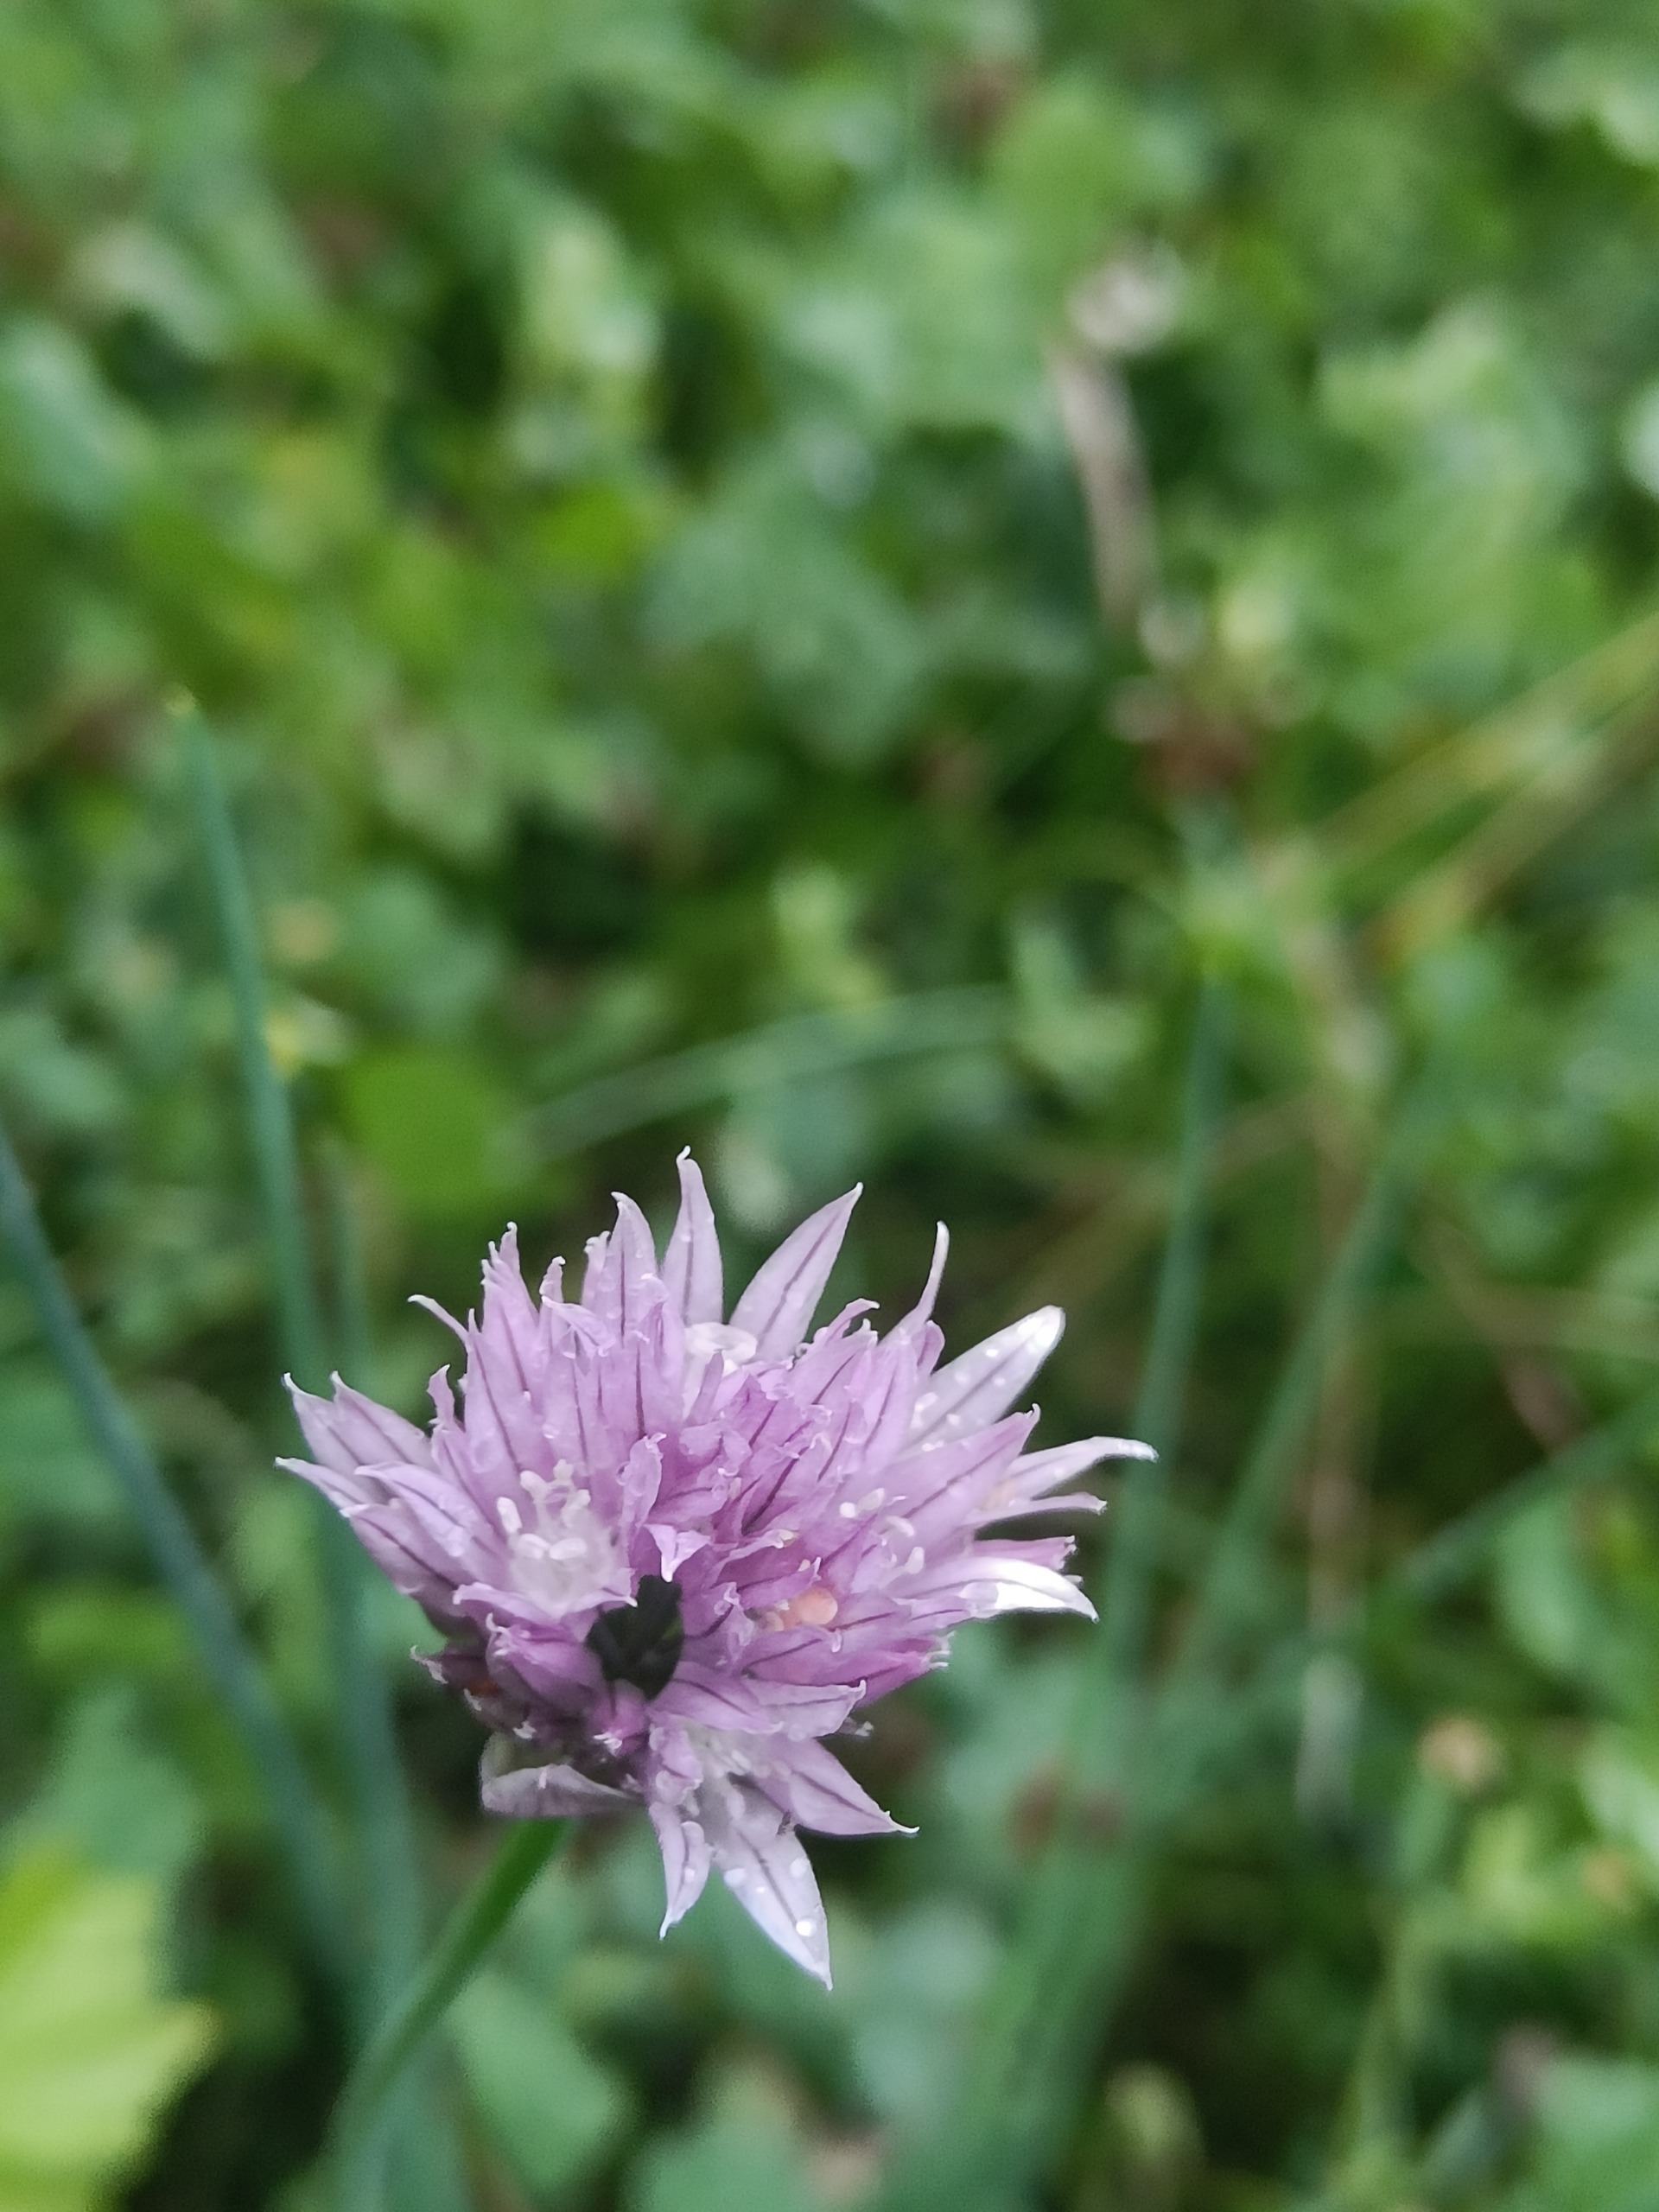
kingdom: Plantae
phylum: Tracheophyta
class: Liliopsida
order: Asparagales
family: Amaryllidaceae
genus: Allium
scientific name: Allium schoenoprasum
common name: Pur-løg
